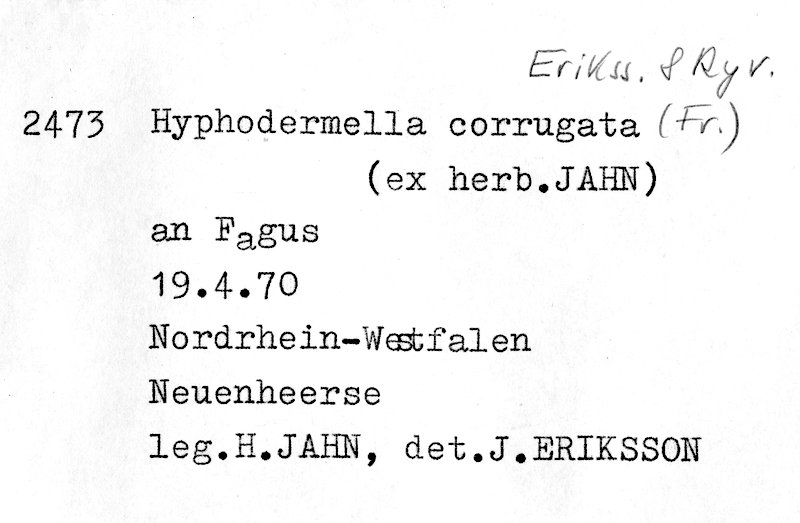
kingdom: Plantae
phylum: Tracheophyta
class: Magnoliopsida
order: Fagales
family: Fagaceae
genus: Fagus
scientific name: Fagus sylvatica
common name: Beech
